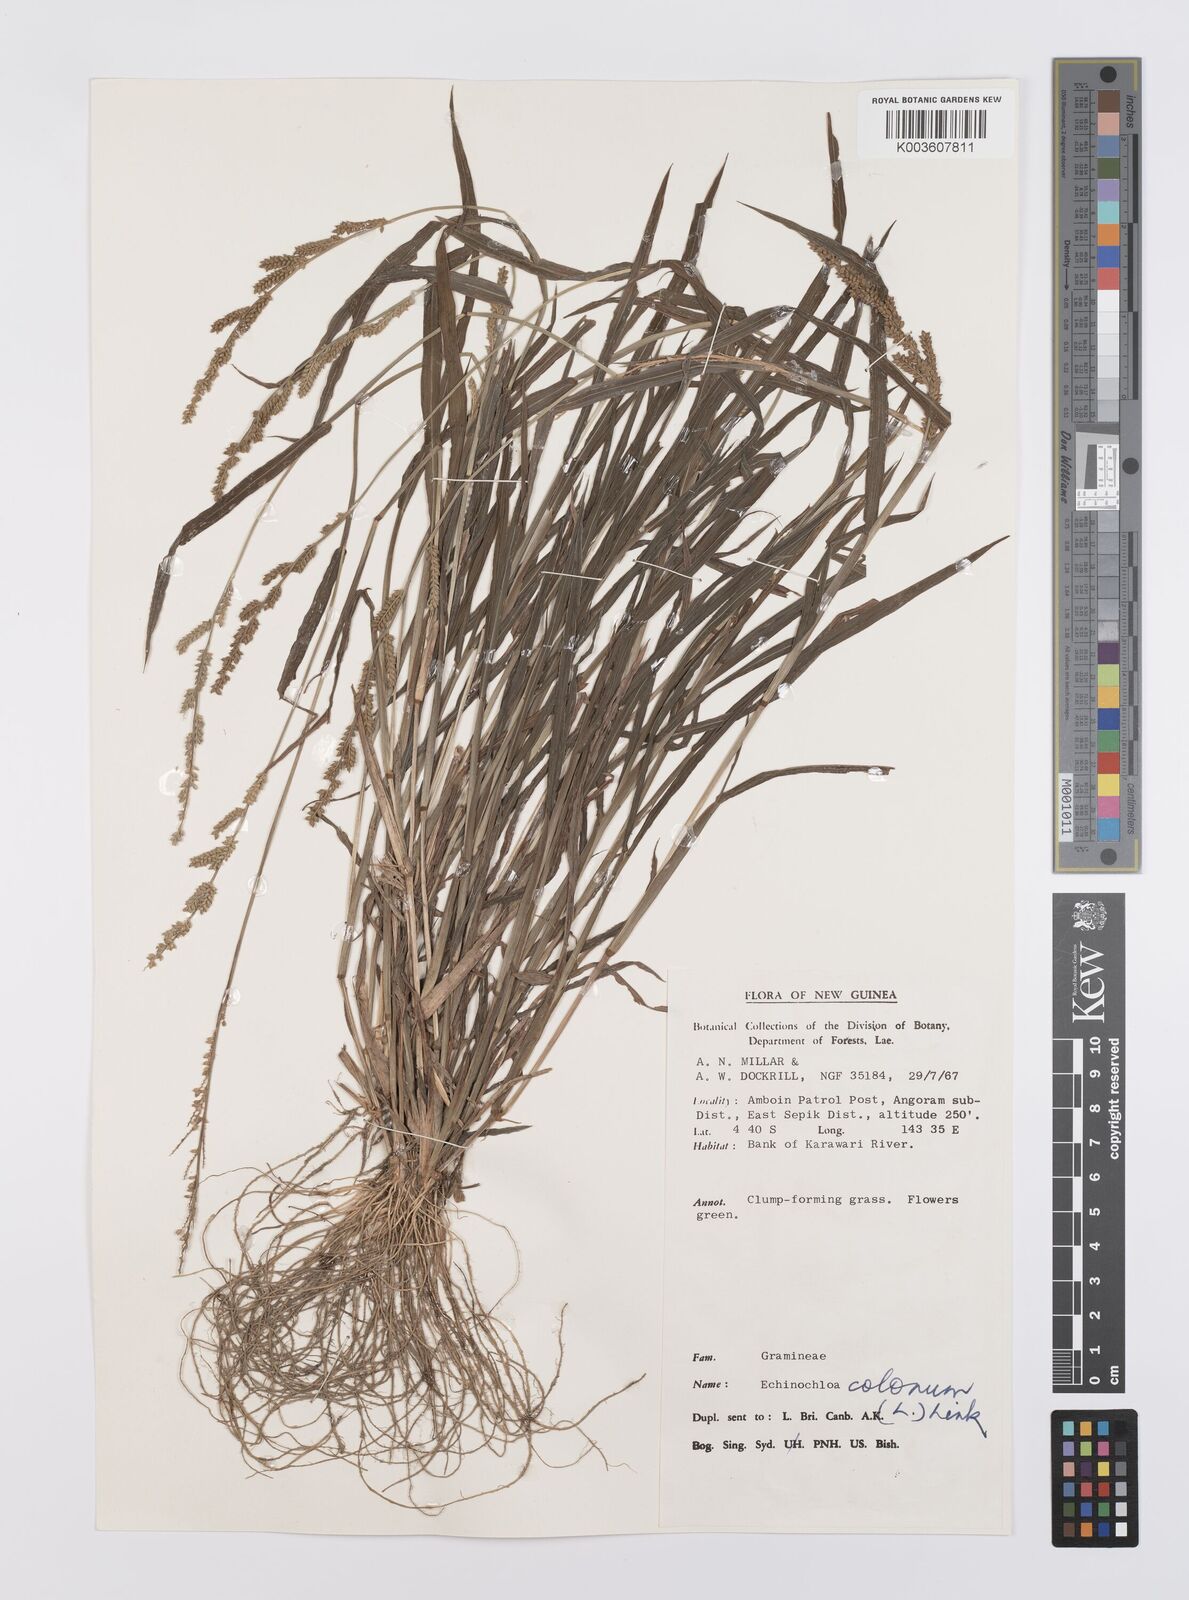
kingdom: Plantae
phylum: Tracheophyta
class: Liliopsida
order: Poales
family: Poaceae
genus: Echinochloa
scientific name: Echinochloa colonum
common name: Jungle rice
